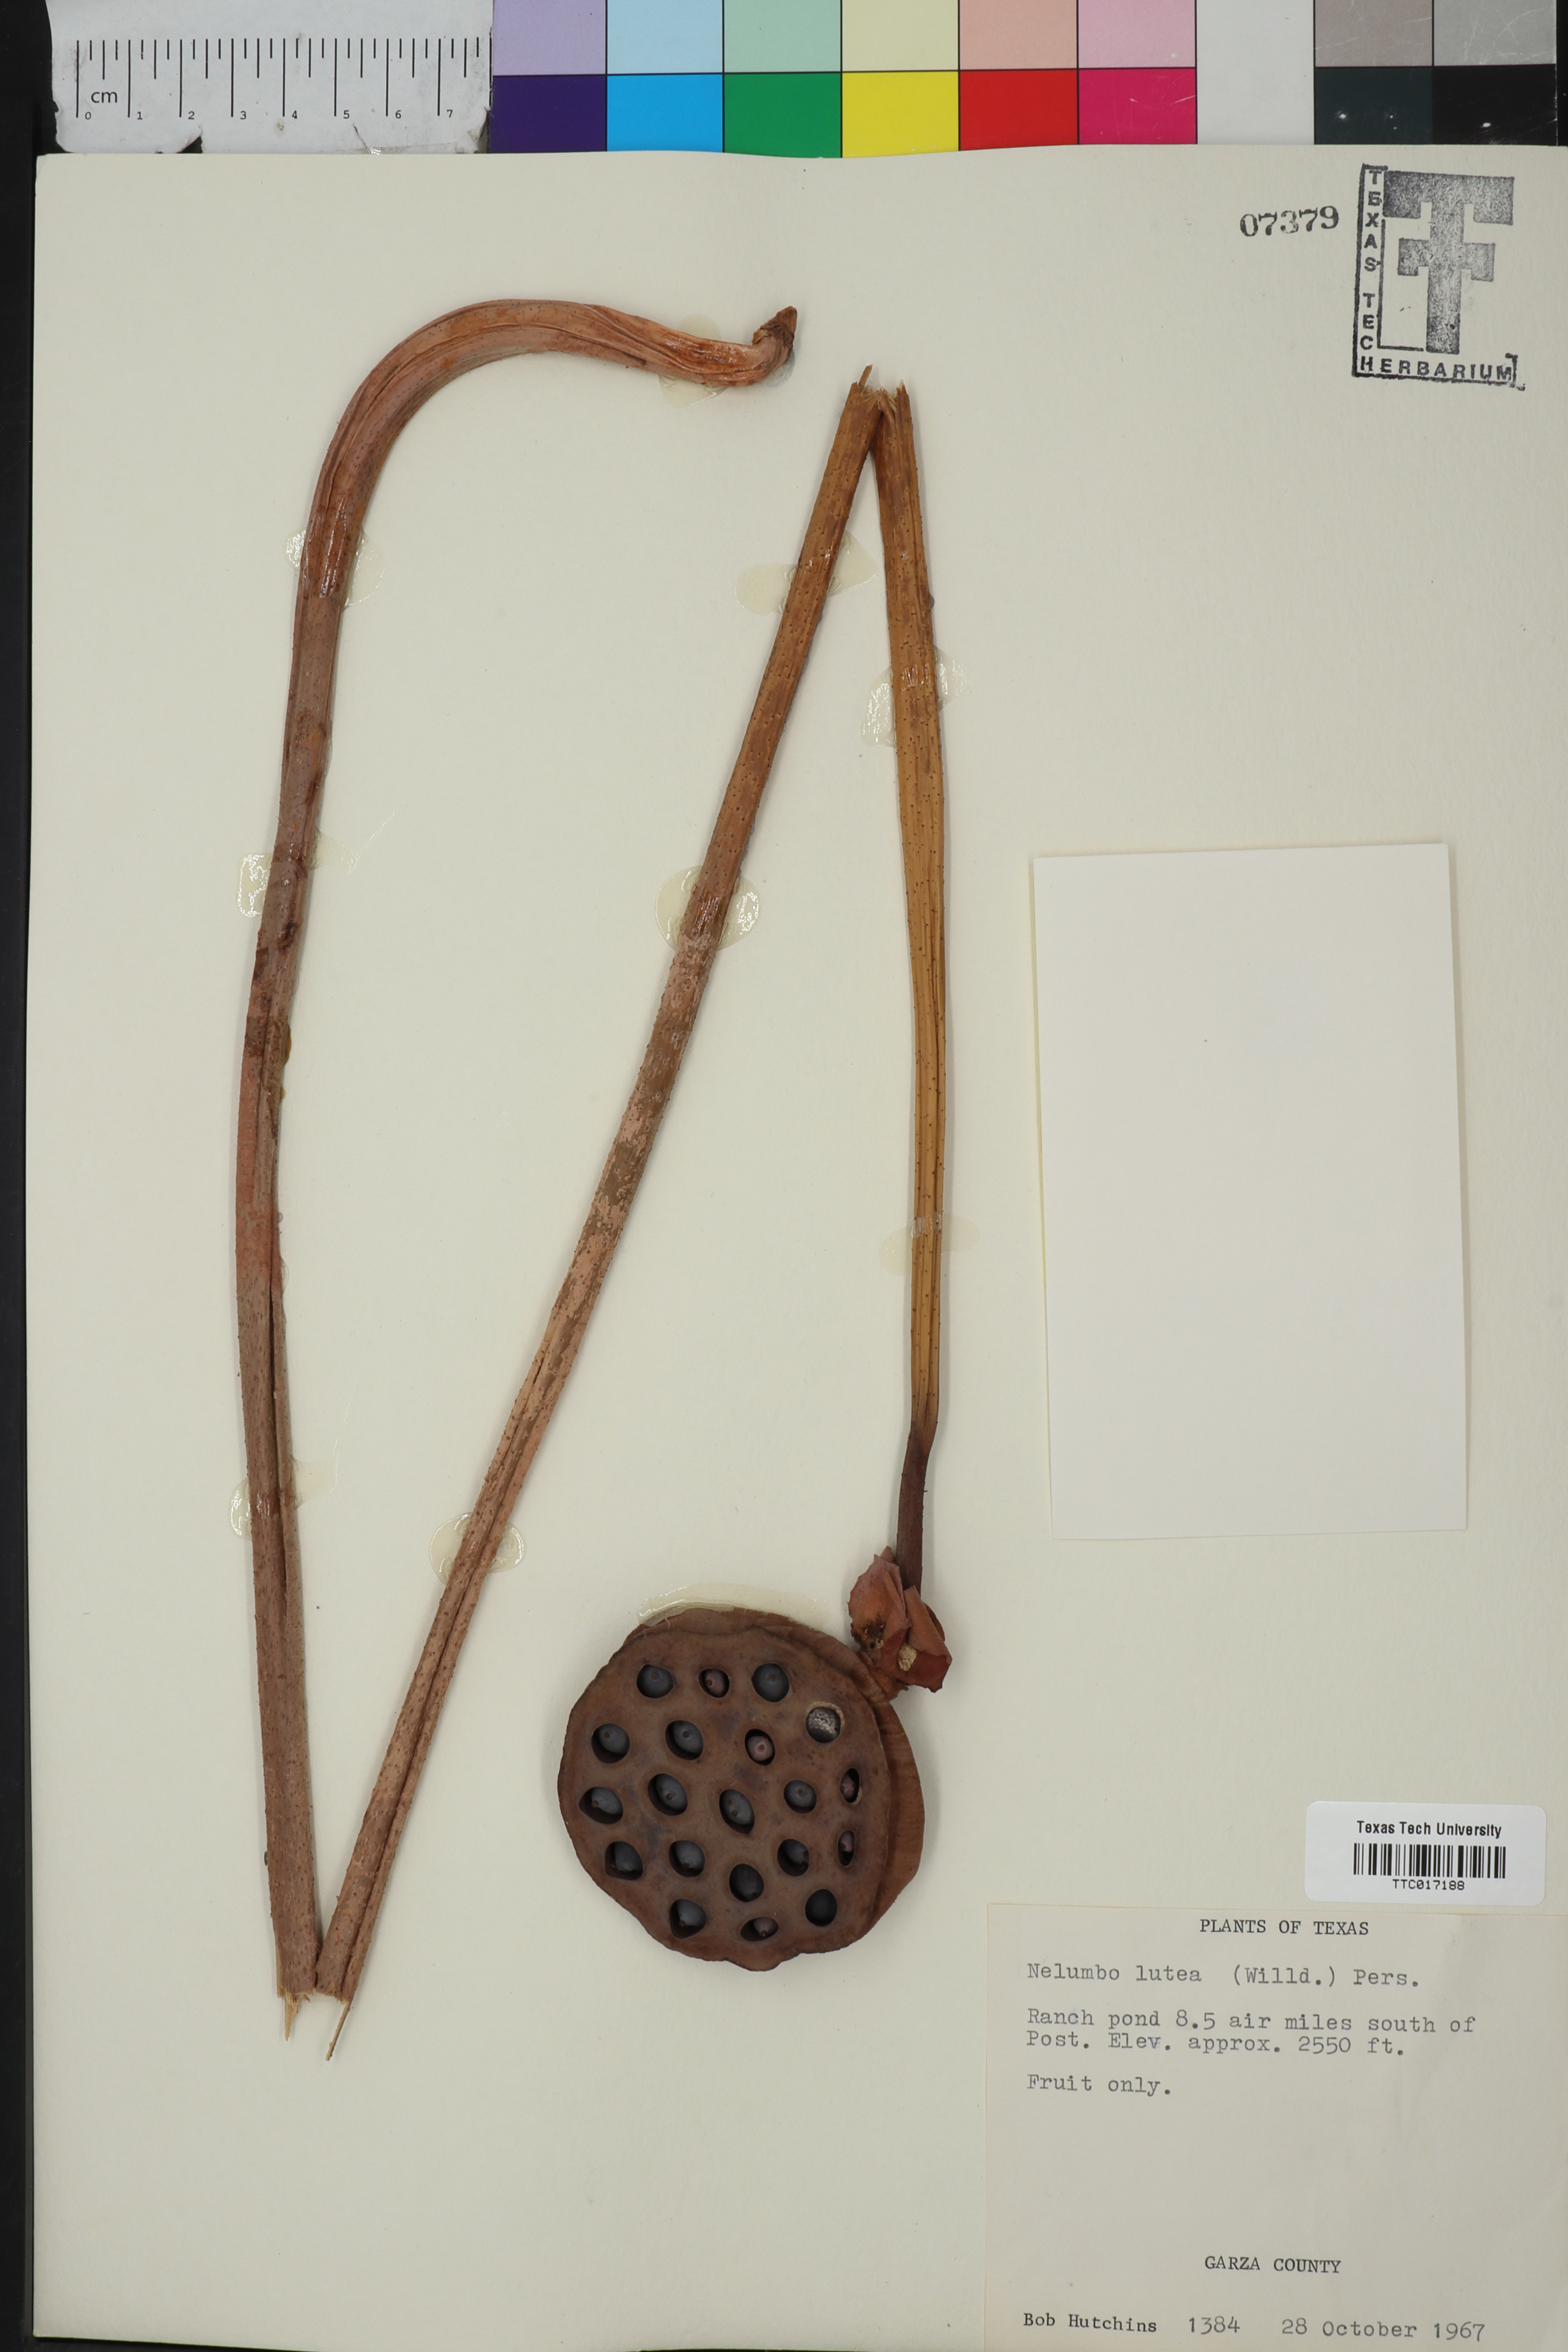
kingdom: Plantae
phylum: Tracheophyta
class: Magnoliopsida
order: Proteales
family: Nelumbonaceae
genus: Nelumbo
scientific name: Nelumbo lutea
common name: American lotus
